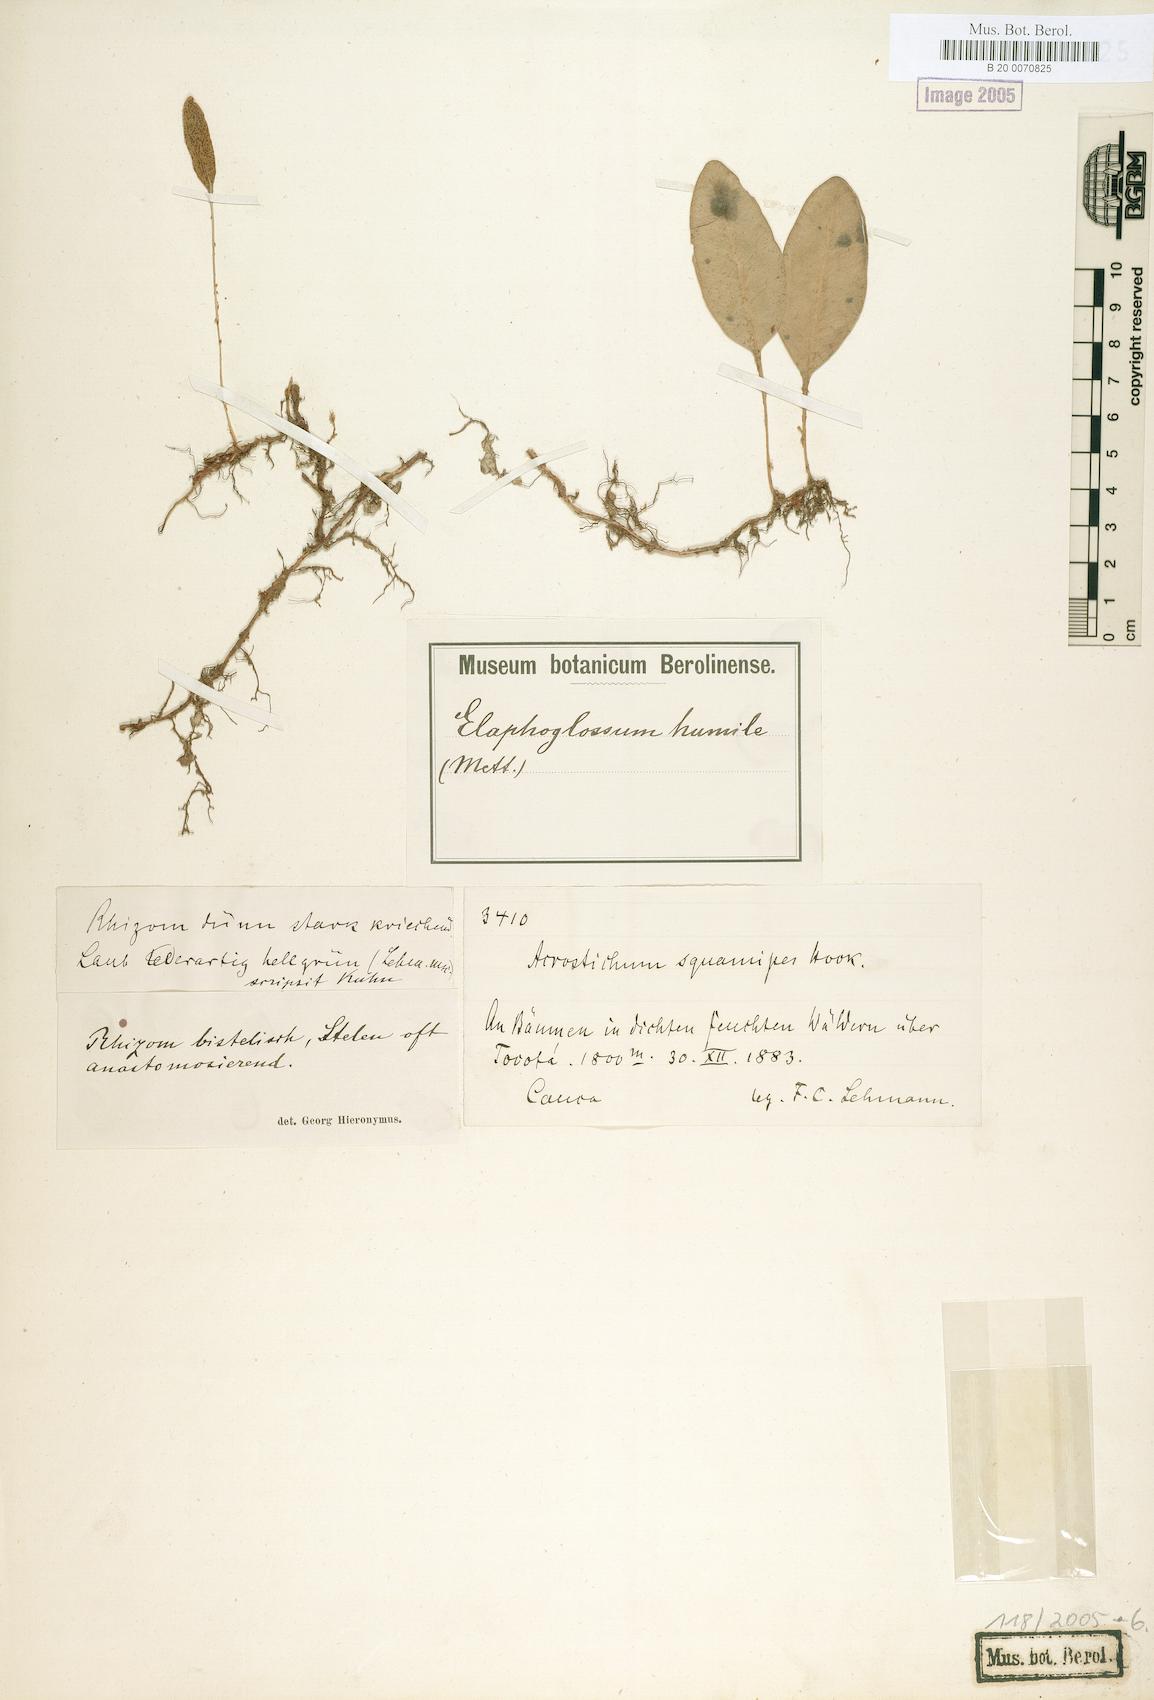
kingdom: Plantae
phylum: Tracheophyta
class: Polypodiopsida
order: Polypodiales
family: Dryopteridaceae
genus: Elaphoglossum
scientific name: Elaphoglossum squamipes
